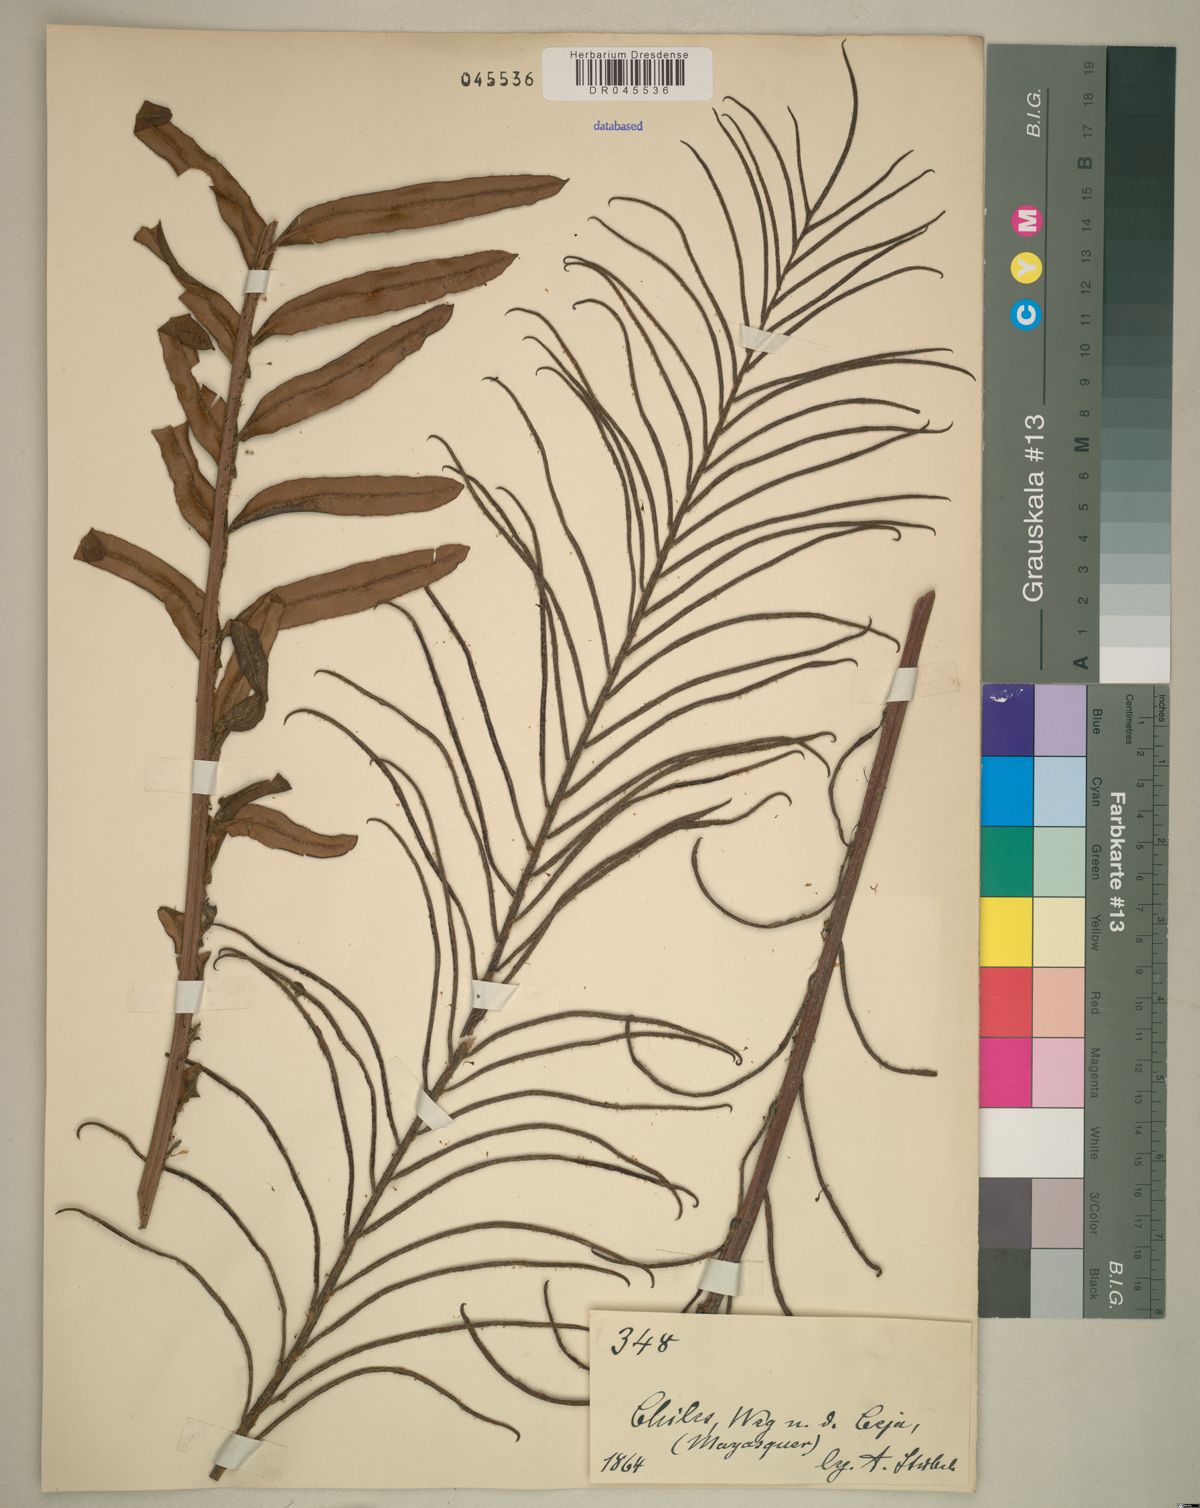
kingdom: Plantae
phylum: Tracheophyta
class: Polypodiopsida
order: Polypodiales
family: Blechnaceae
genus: Lomariocycas
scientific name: Lomariocycas schomburgkii
